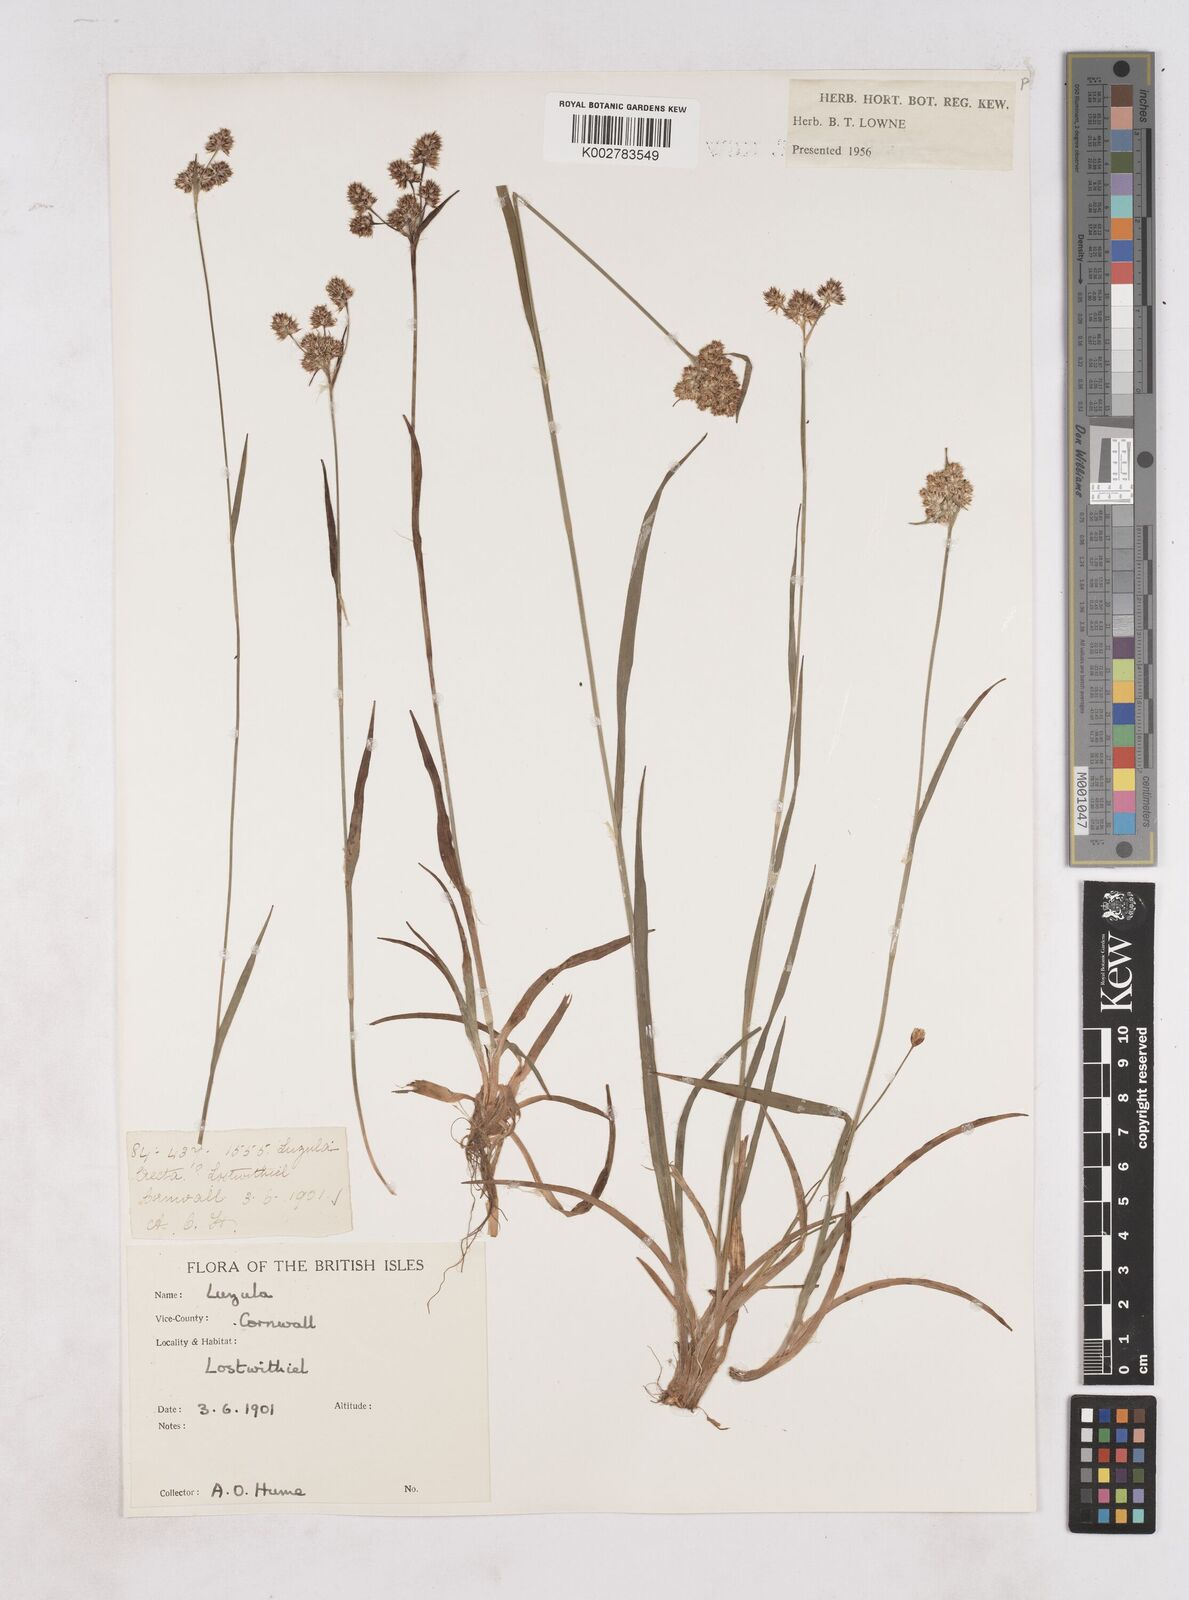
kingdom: Plantae
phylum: Tracheophyta
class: Liliopsida
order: Poales
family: Juncaceae
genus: Luzula
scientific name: Luzula
